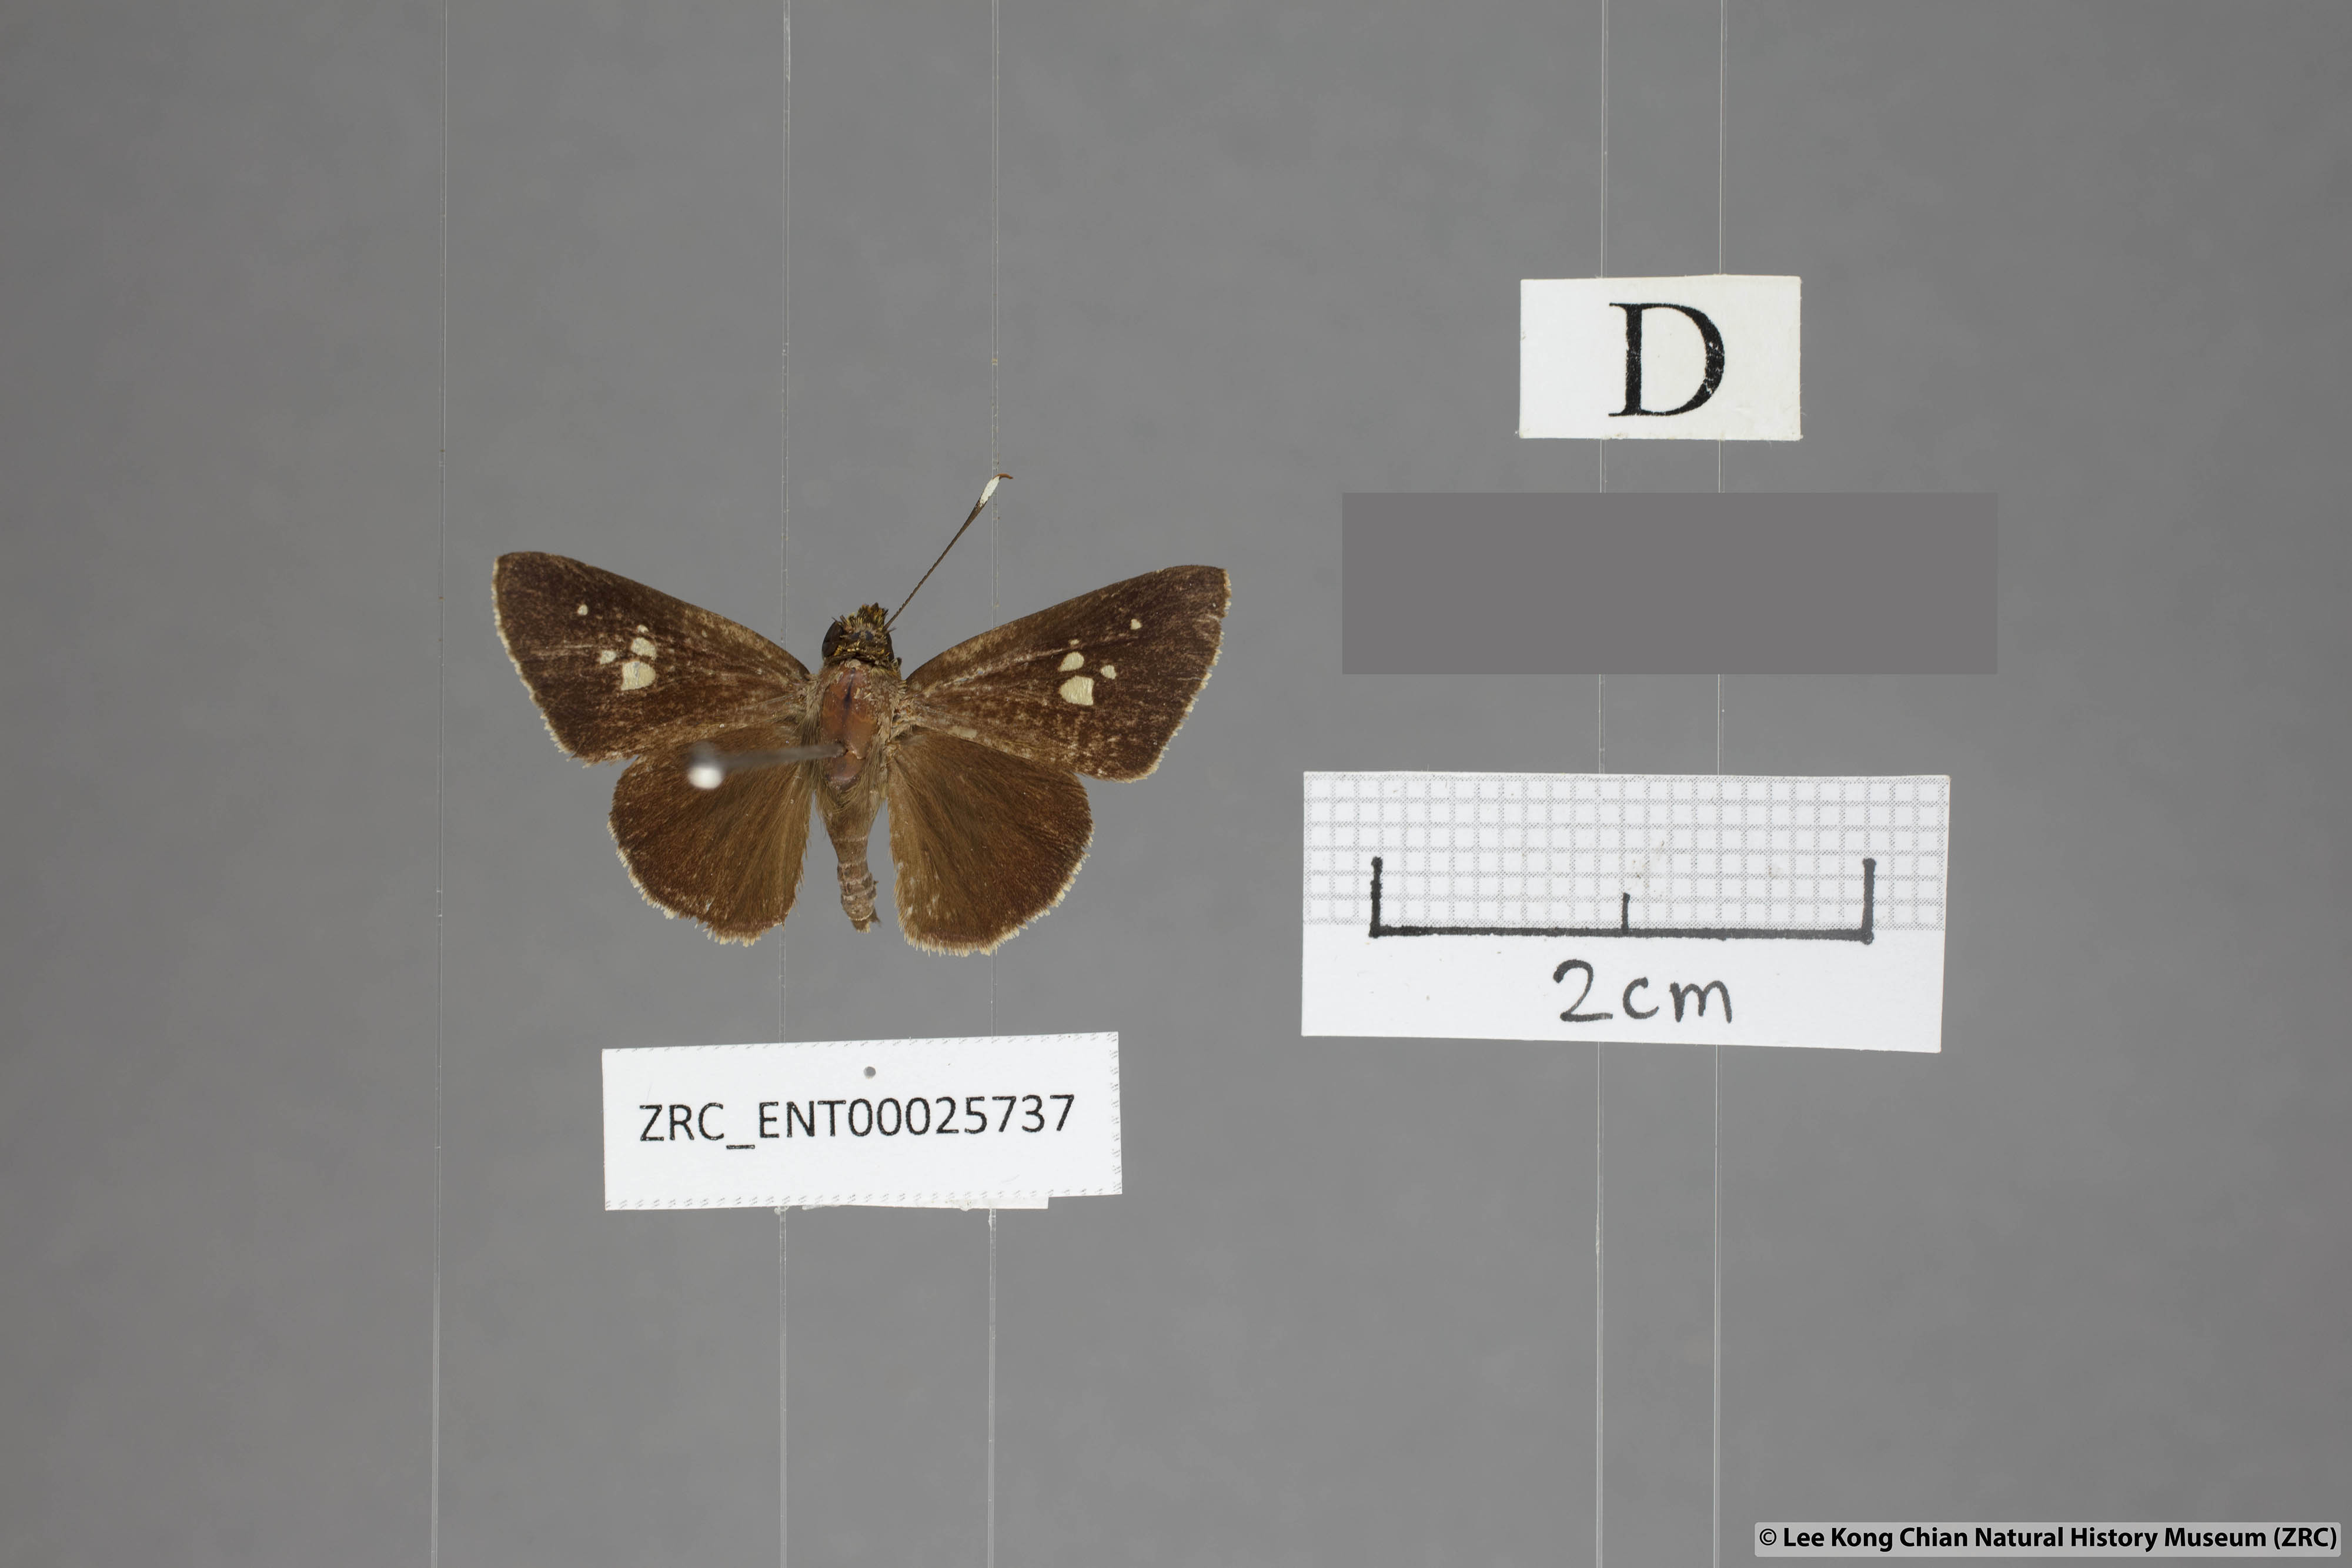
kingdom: Animalia
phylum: Arthropoda
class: Insecta
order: Lepidoptera
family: Hesperiidae
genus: Zographetus
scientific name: Zographetus ogygia
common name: Purple-spotted flitter
